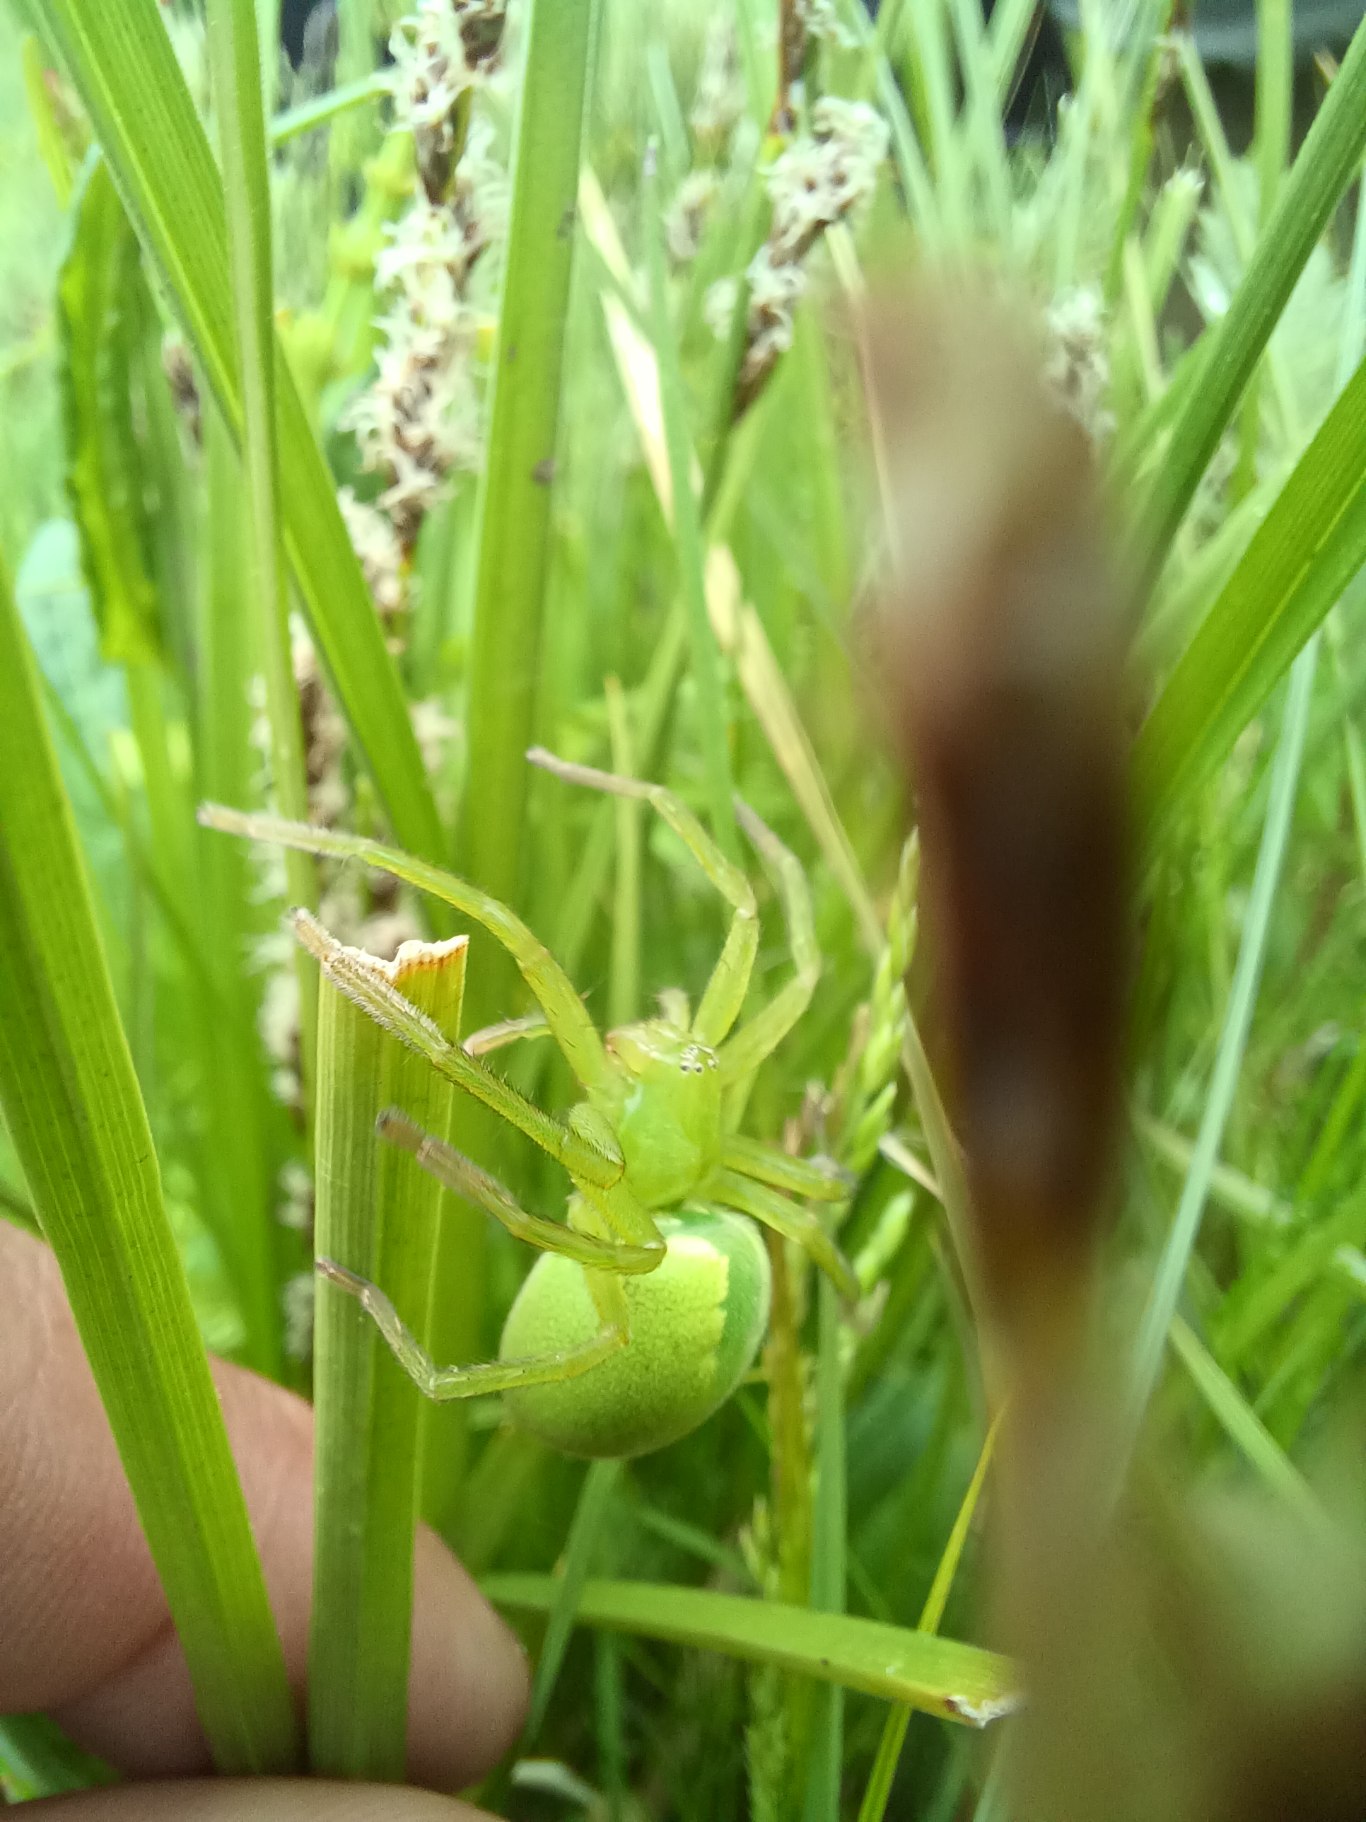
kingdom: Animalia
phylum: Arthropoda
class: Arachnida
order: Araneae
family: Sparassidae
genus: Micrommata
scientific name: Micrommata virescens
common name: Smaragdedderkop
